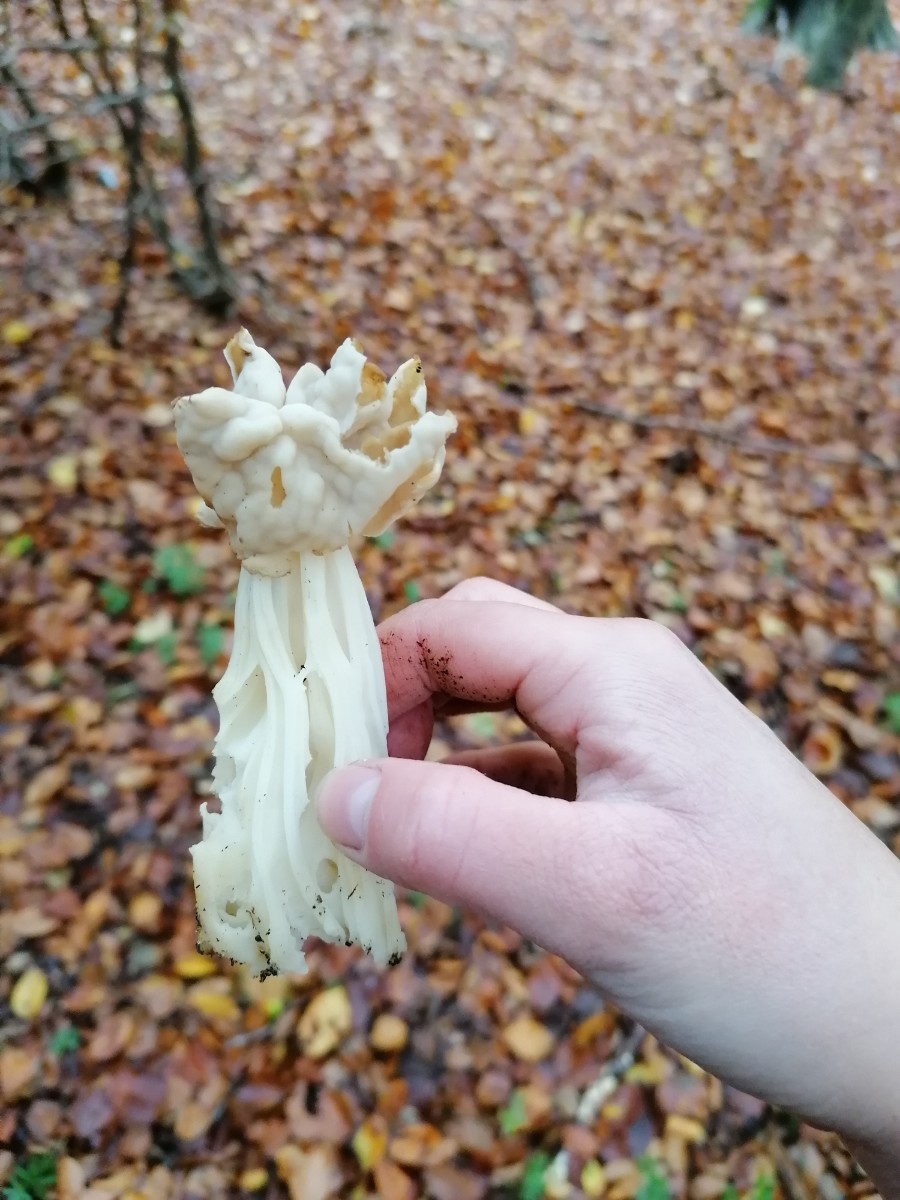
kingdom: Fungi
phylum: Ascomycota
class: Pezizomycetes
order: Pezizales
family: Helvellaceae
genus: Helvella
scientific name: Helvella crispa
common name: kruset foldhat
